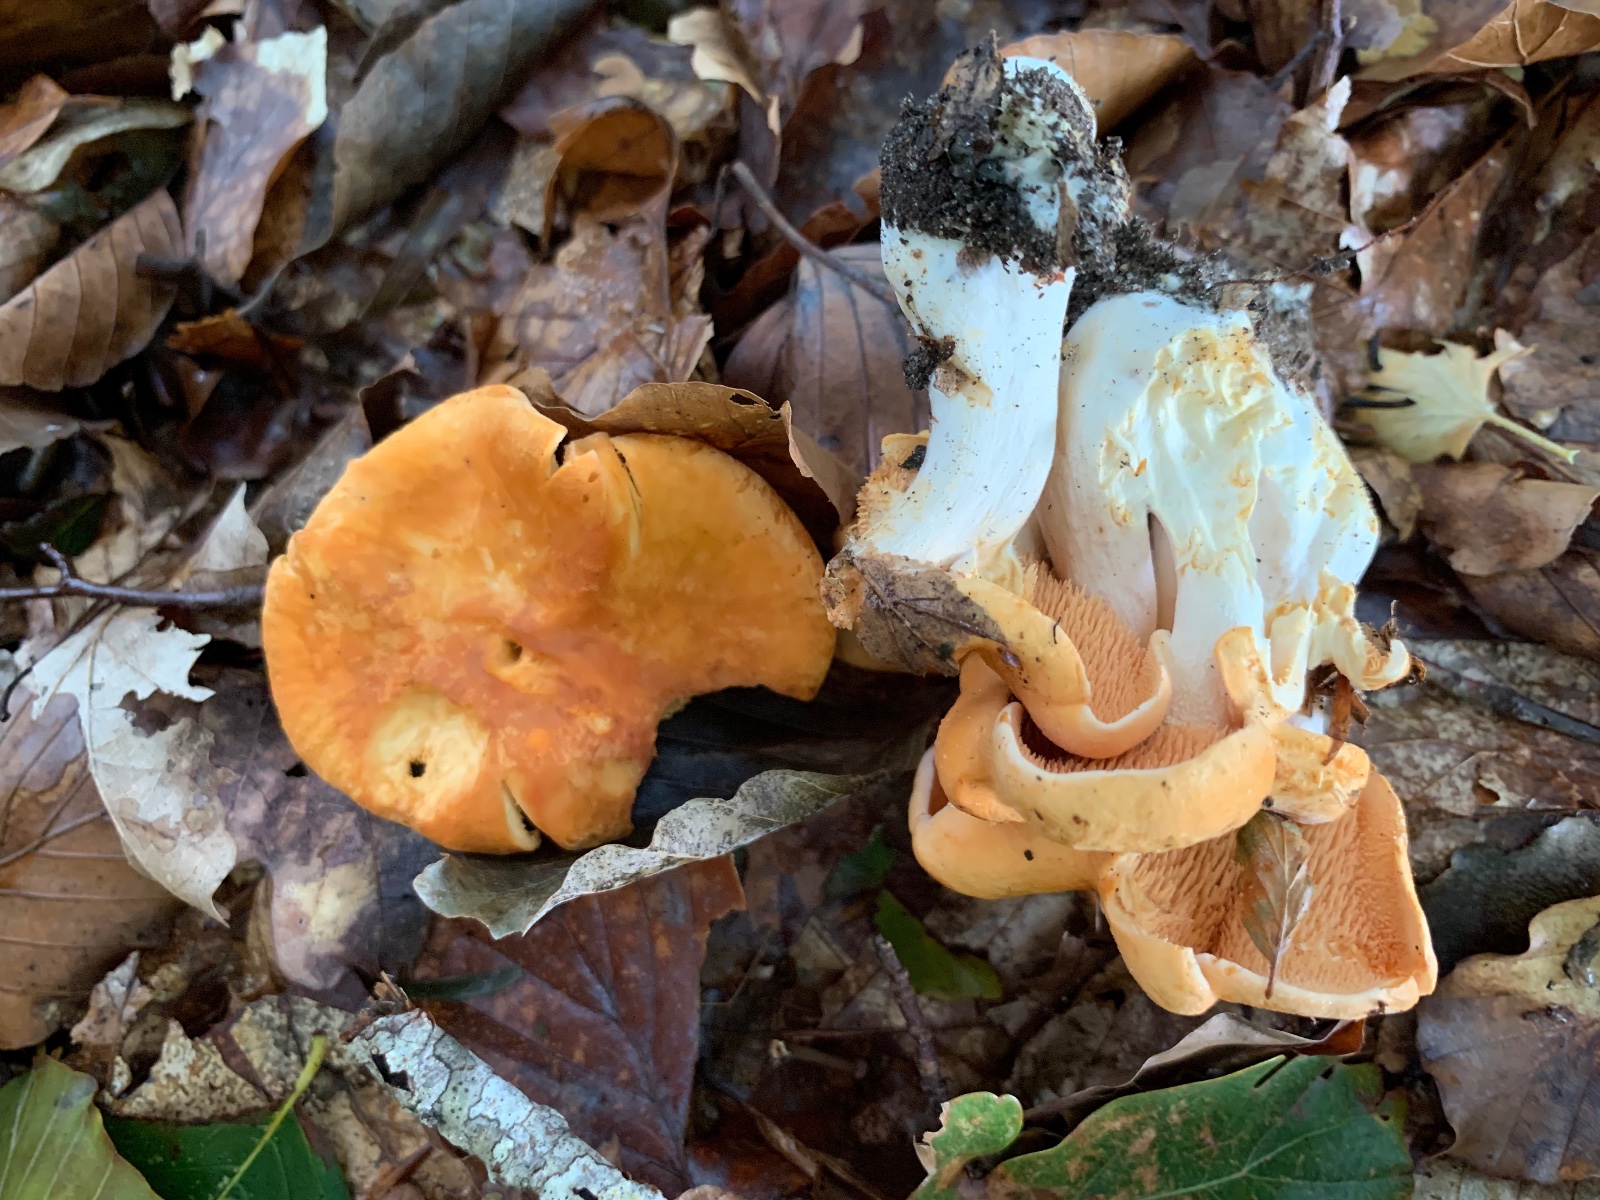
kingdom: Fungi
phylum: Basidiomycota
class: Agaricomycetes
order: Cantharellales
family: Hydnaceae
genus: Hydnum
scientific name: Hydnum ellipsosporum
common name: tandet pigsvamp
